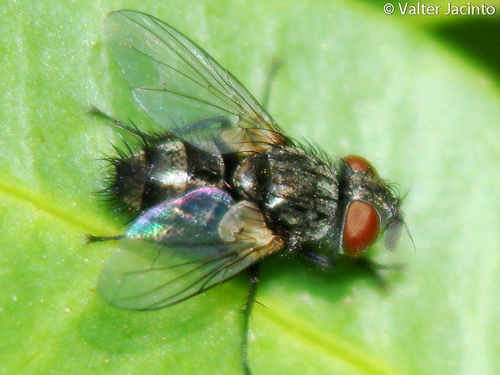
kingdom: Animalia
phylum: Arthropoda
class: Insecta
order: Diptera
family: Tachinidae
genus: Phryxe
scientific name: Phryxe
